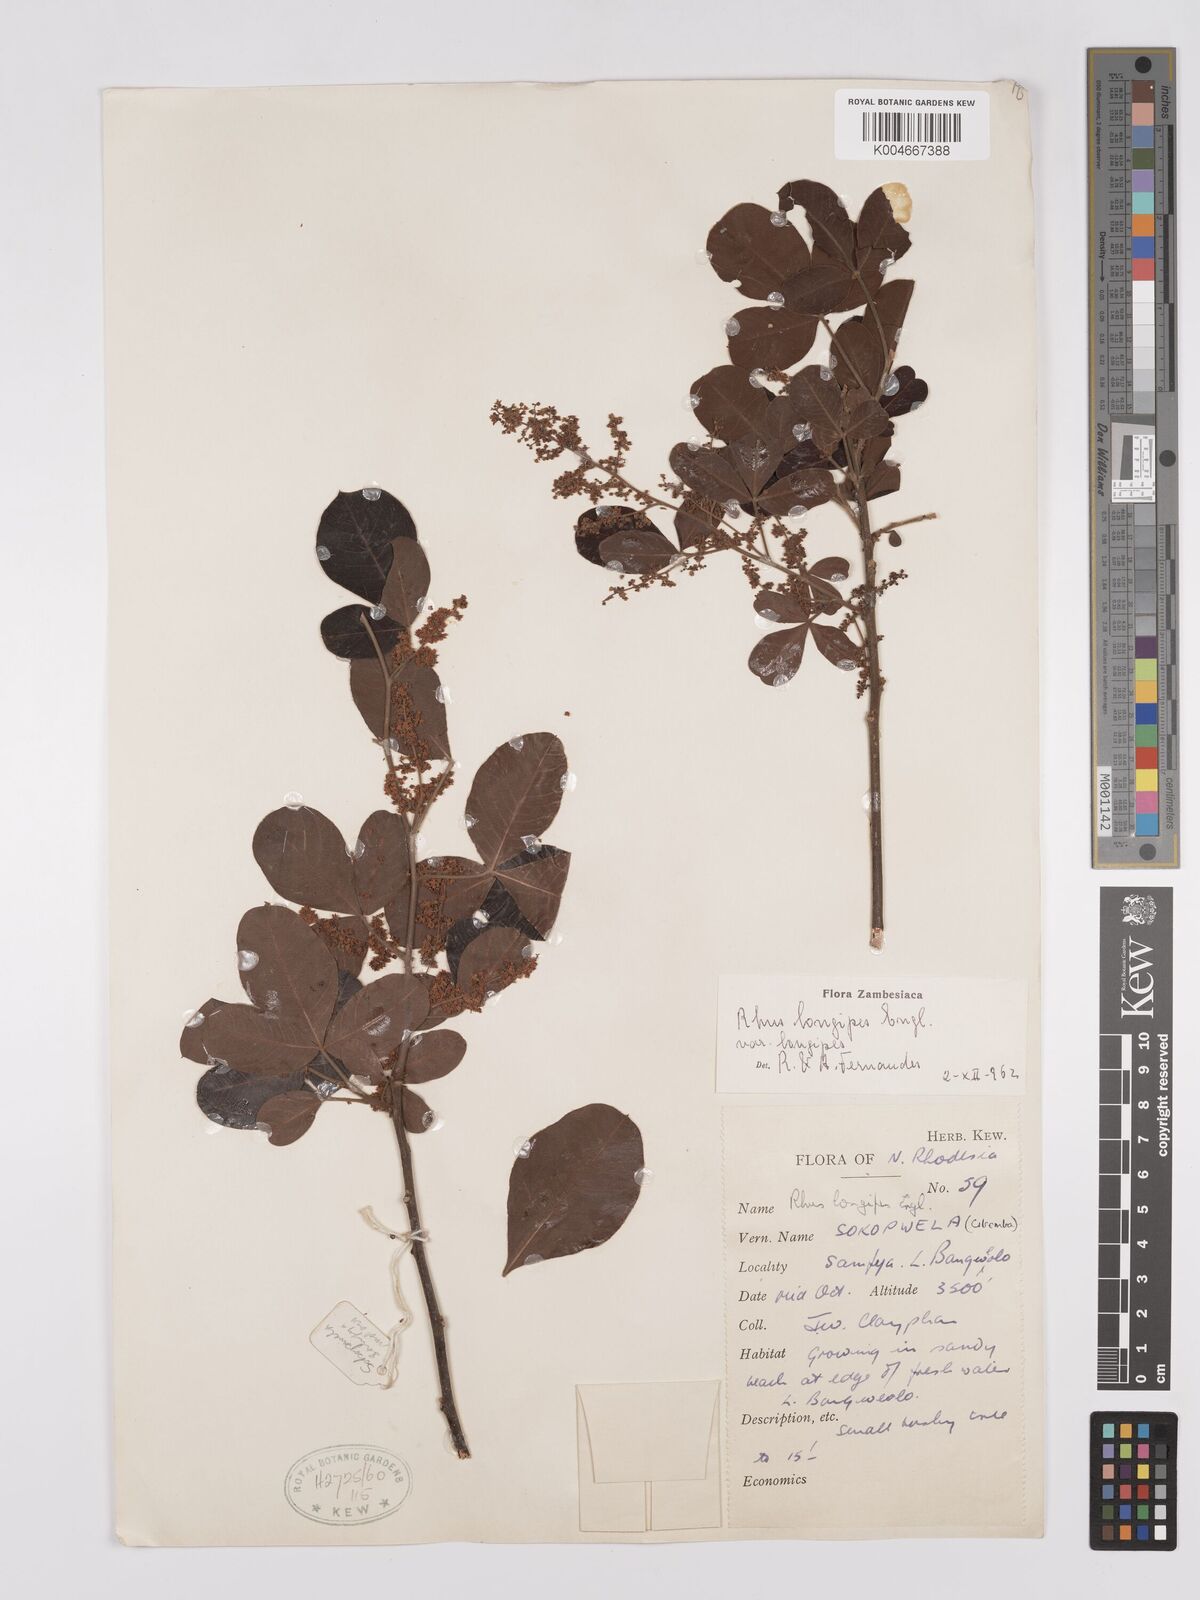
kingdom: Plantae
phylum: Tracheophyta
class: Magnoliopsida
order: Sapindales
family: Anacardiaceae
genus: Searsia
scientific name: Searsia longipes
